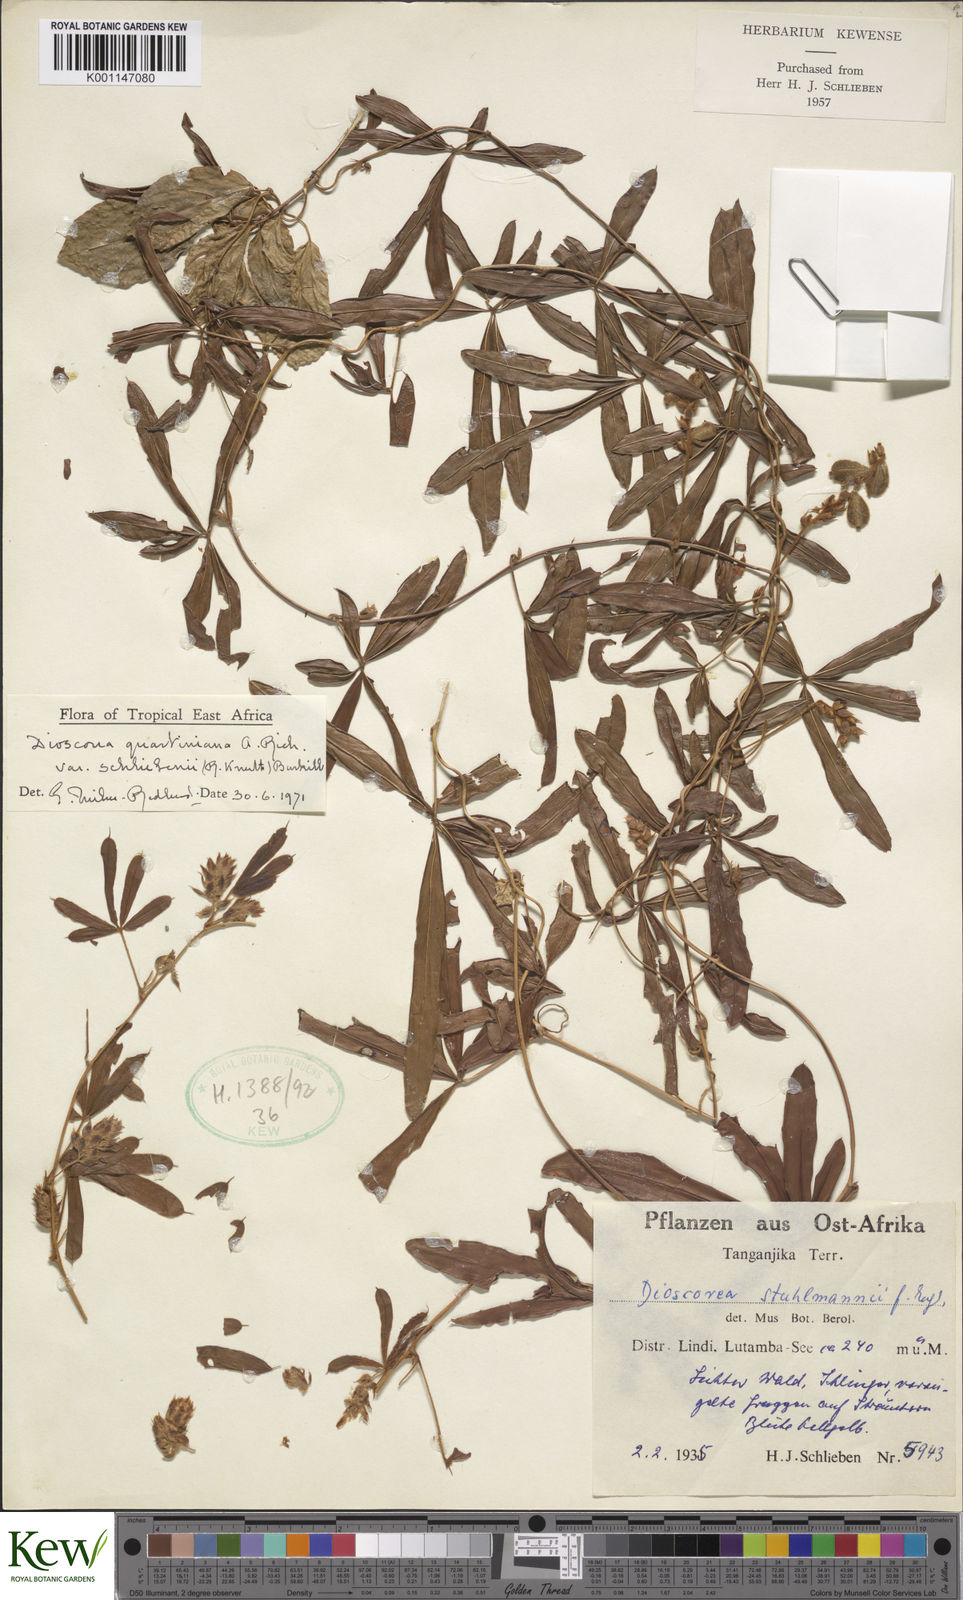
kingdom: Plantae
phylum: Tracheophyta
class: Liliopsida
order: Dioscoreales
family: Dioscoreaceae
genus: Dioscorea
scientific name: Dioscorea quartiniana
